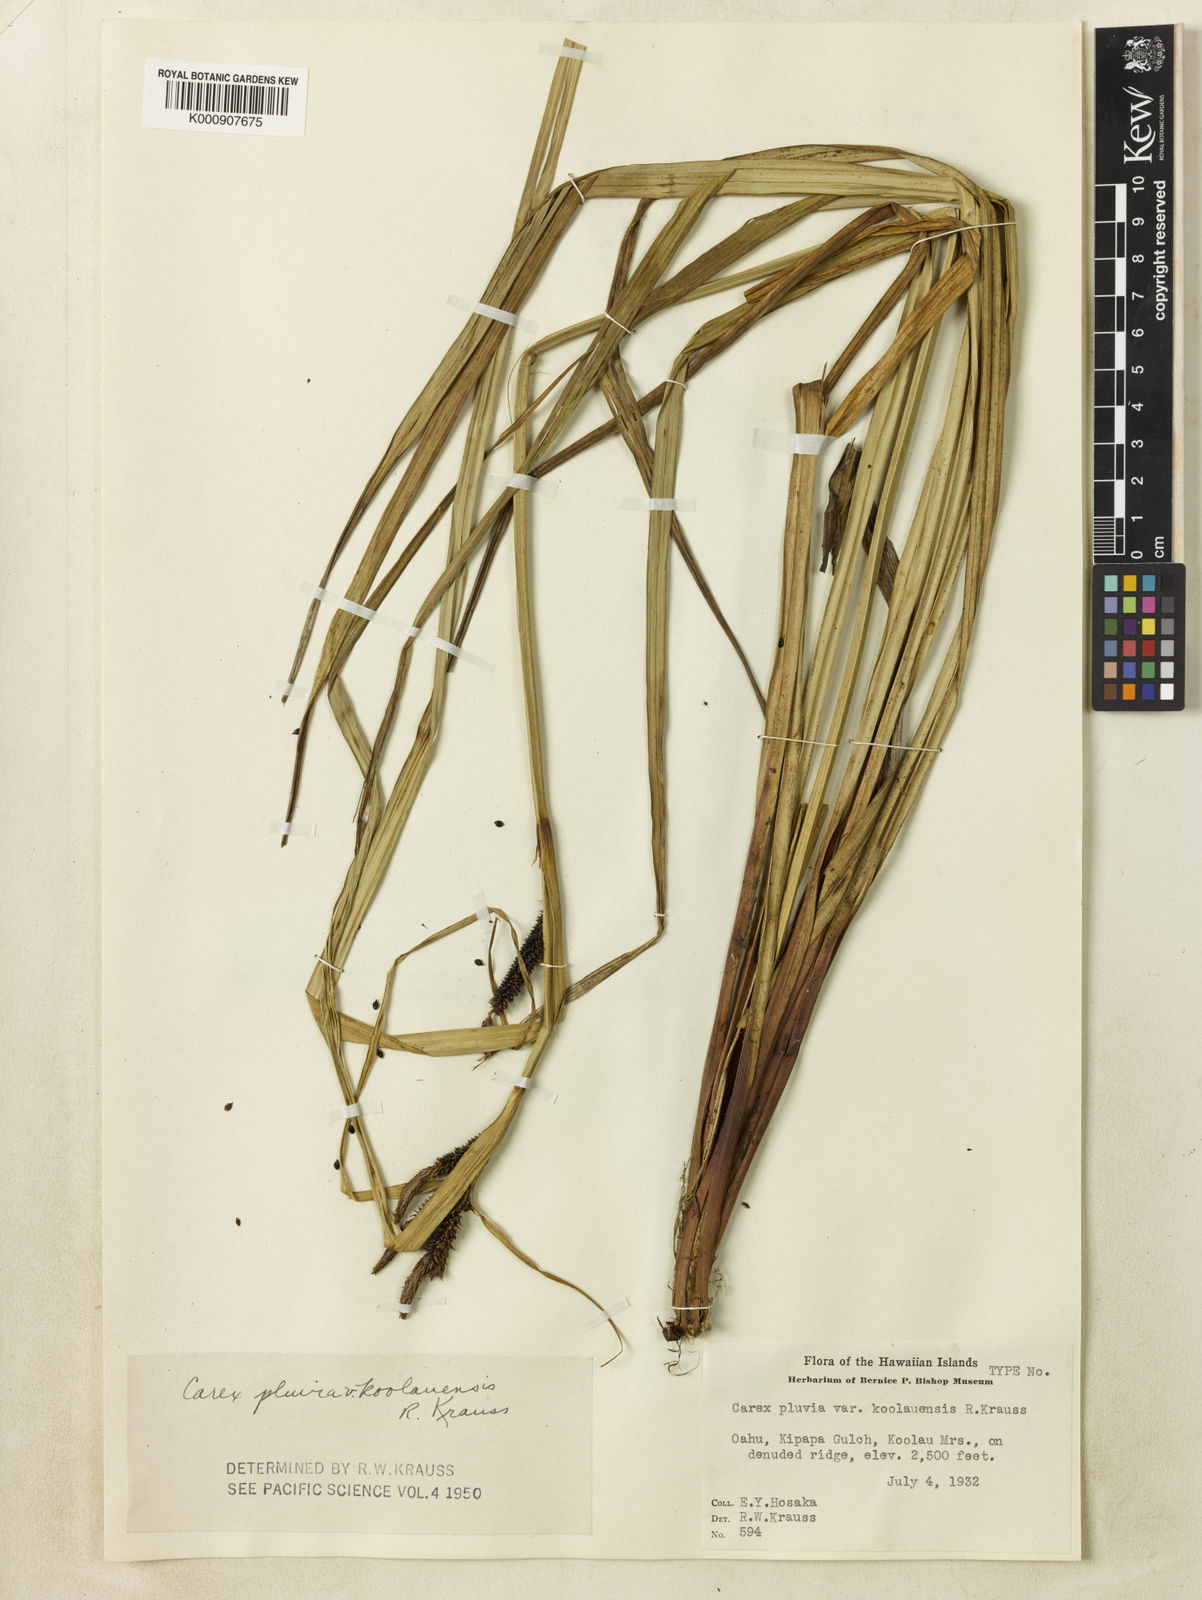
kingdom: Plantae
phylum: Tracheophyta
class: Liliopsida
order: Poales
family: Cyperaceae
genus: Carex
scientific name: Carex alligata
